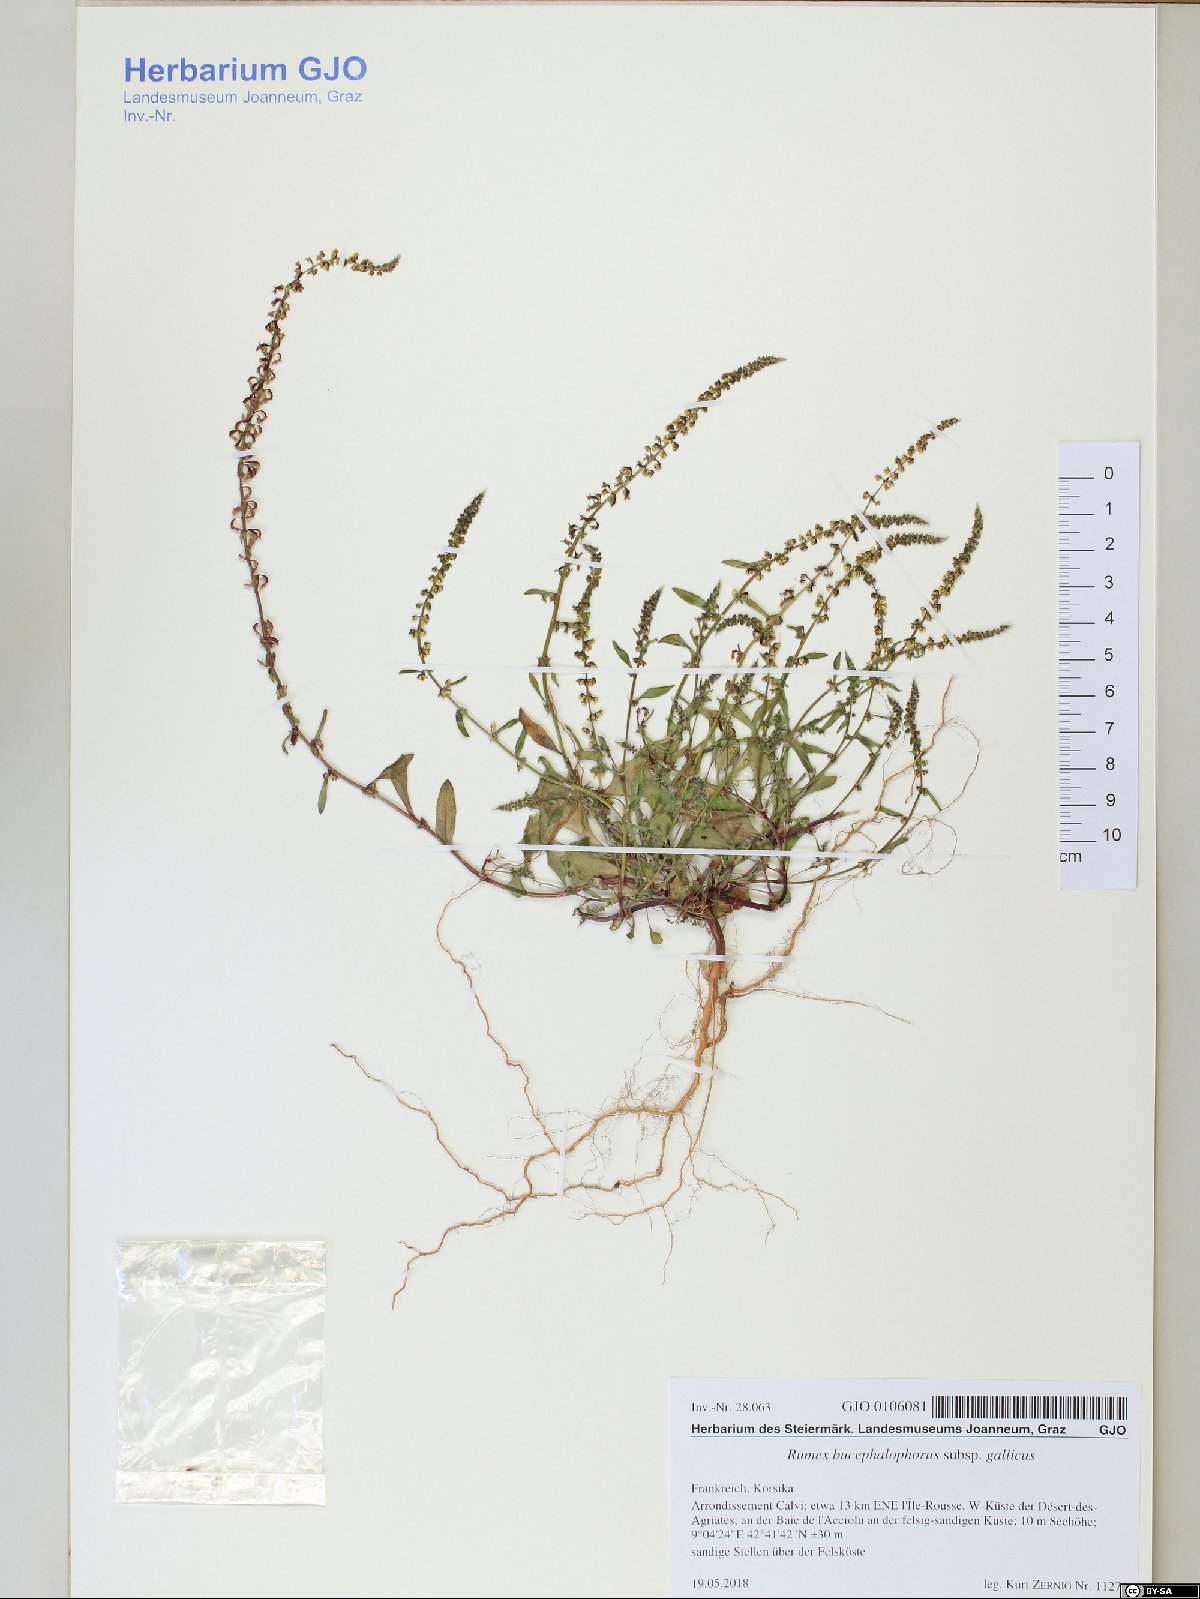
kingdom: Plantae
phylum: Tracheophyta
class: Magnoliopsida
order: Caryophyllales
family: Polygonaceae
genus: Rumex
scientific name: Rumex bucephalophorus
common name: Red dock
